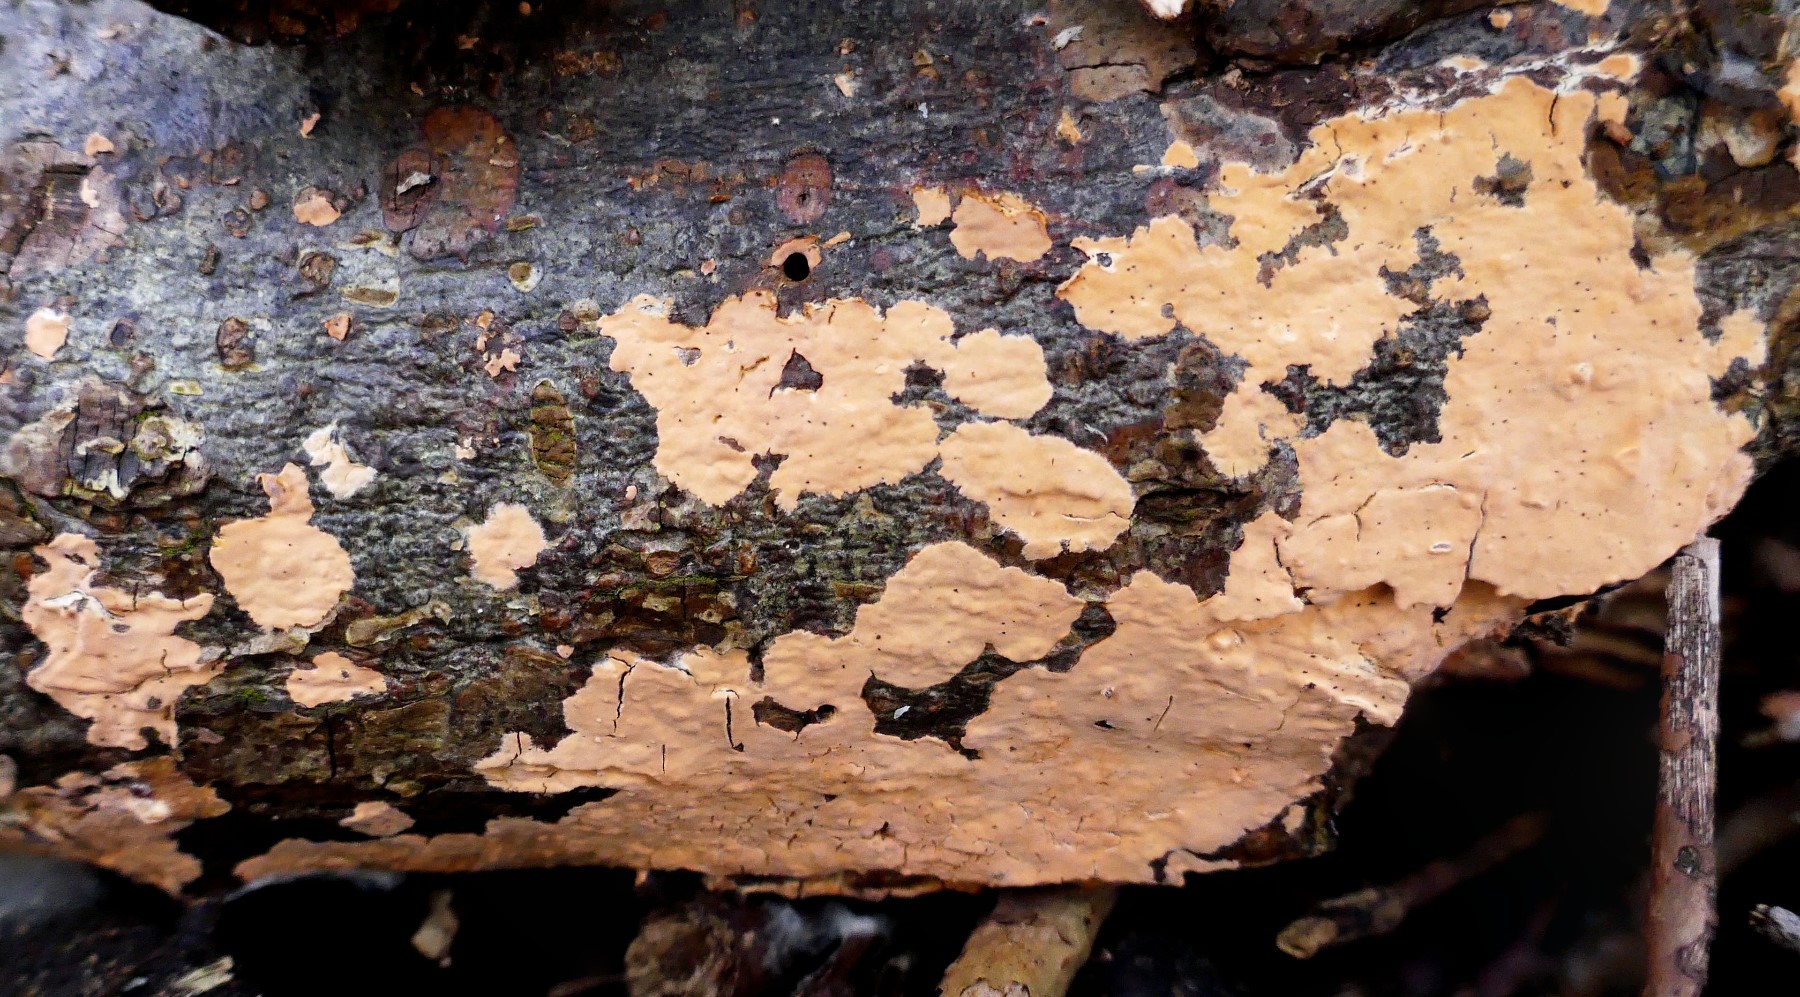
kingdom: Fungi
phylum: Basidiomycota
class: Agaricomycetes
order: Russulales
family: Peniophoraceae
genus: Peniophora
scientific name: Peniophora incarnata
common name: laksefarvet voksskind
